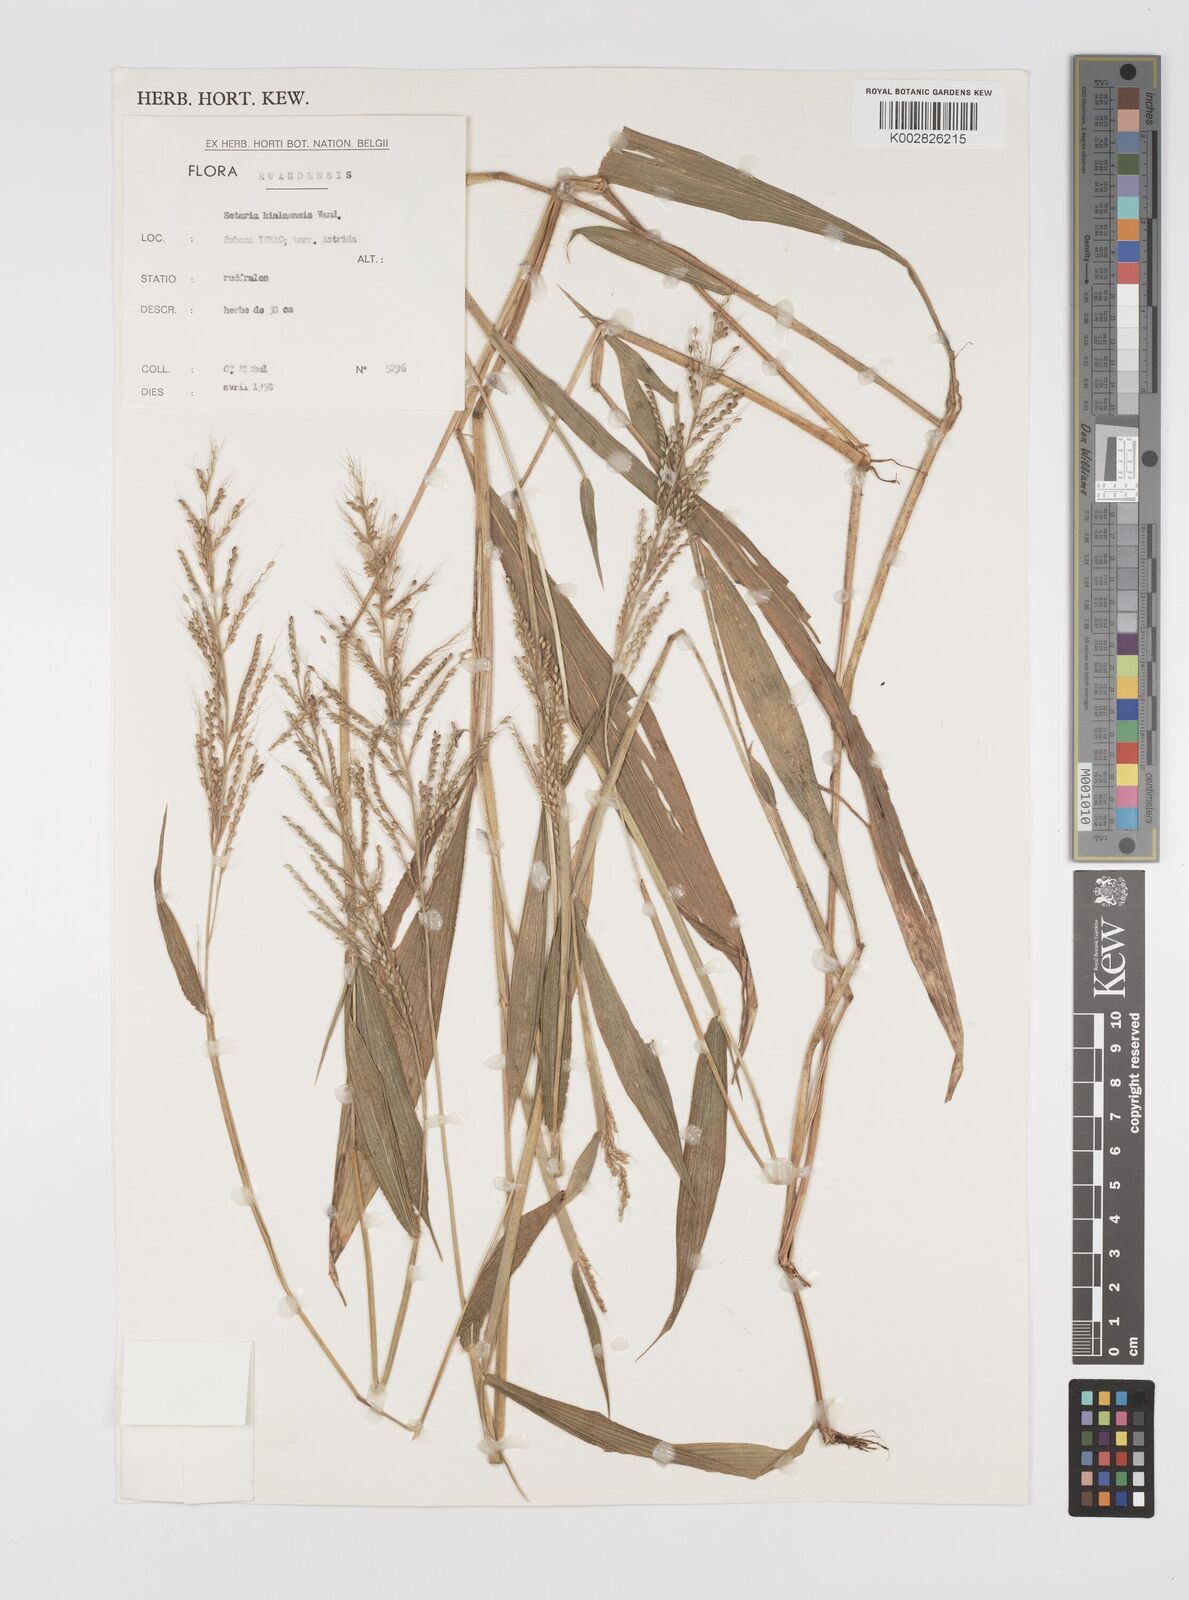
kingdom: Plantae
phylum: Tracheophyta
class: Liliopsida
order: Poales
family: Poaceae
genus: Setaria
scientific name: Setaria homonyma
